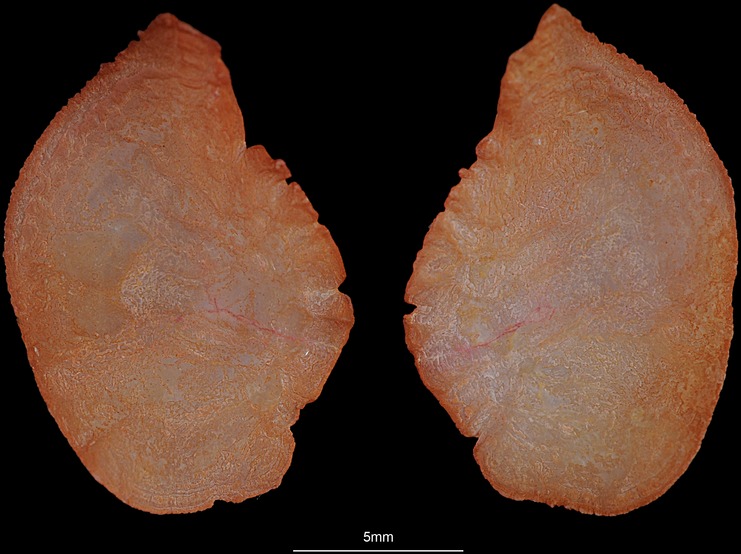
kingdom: Animalia
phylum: Chordata
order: Perciformes
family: Haemulidae
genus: Pomadasys
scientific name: Pomadasys argyreus
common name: Bluecheek silver grunt
